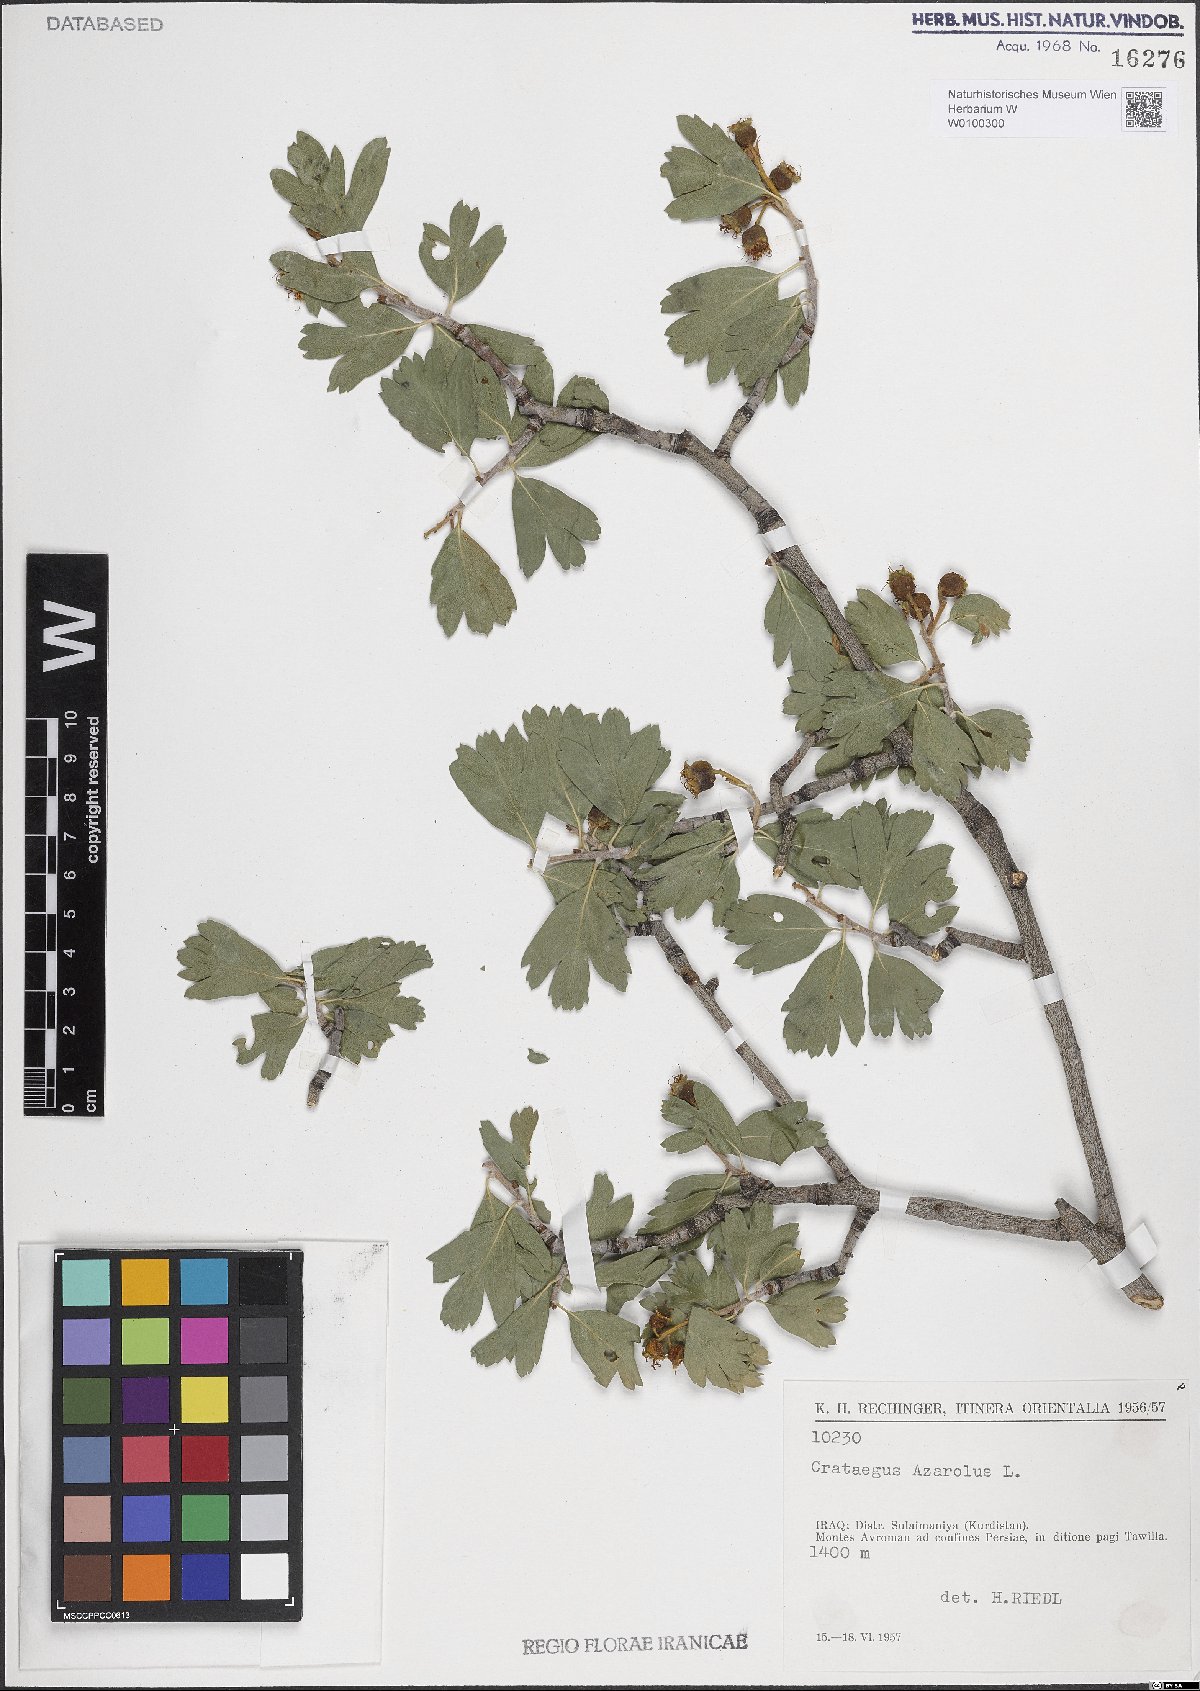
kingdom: Plantae
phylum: Tracheophyta
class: Magnoliopsida
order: Rosales
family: Rosaceae
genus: Crataegus
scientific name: Crataegus azarolus
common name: Azarole
